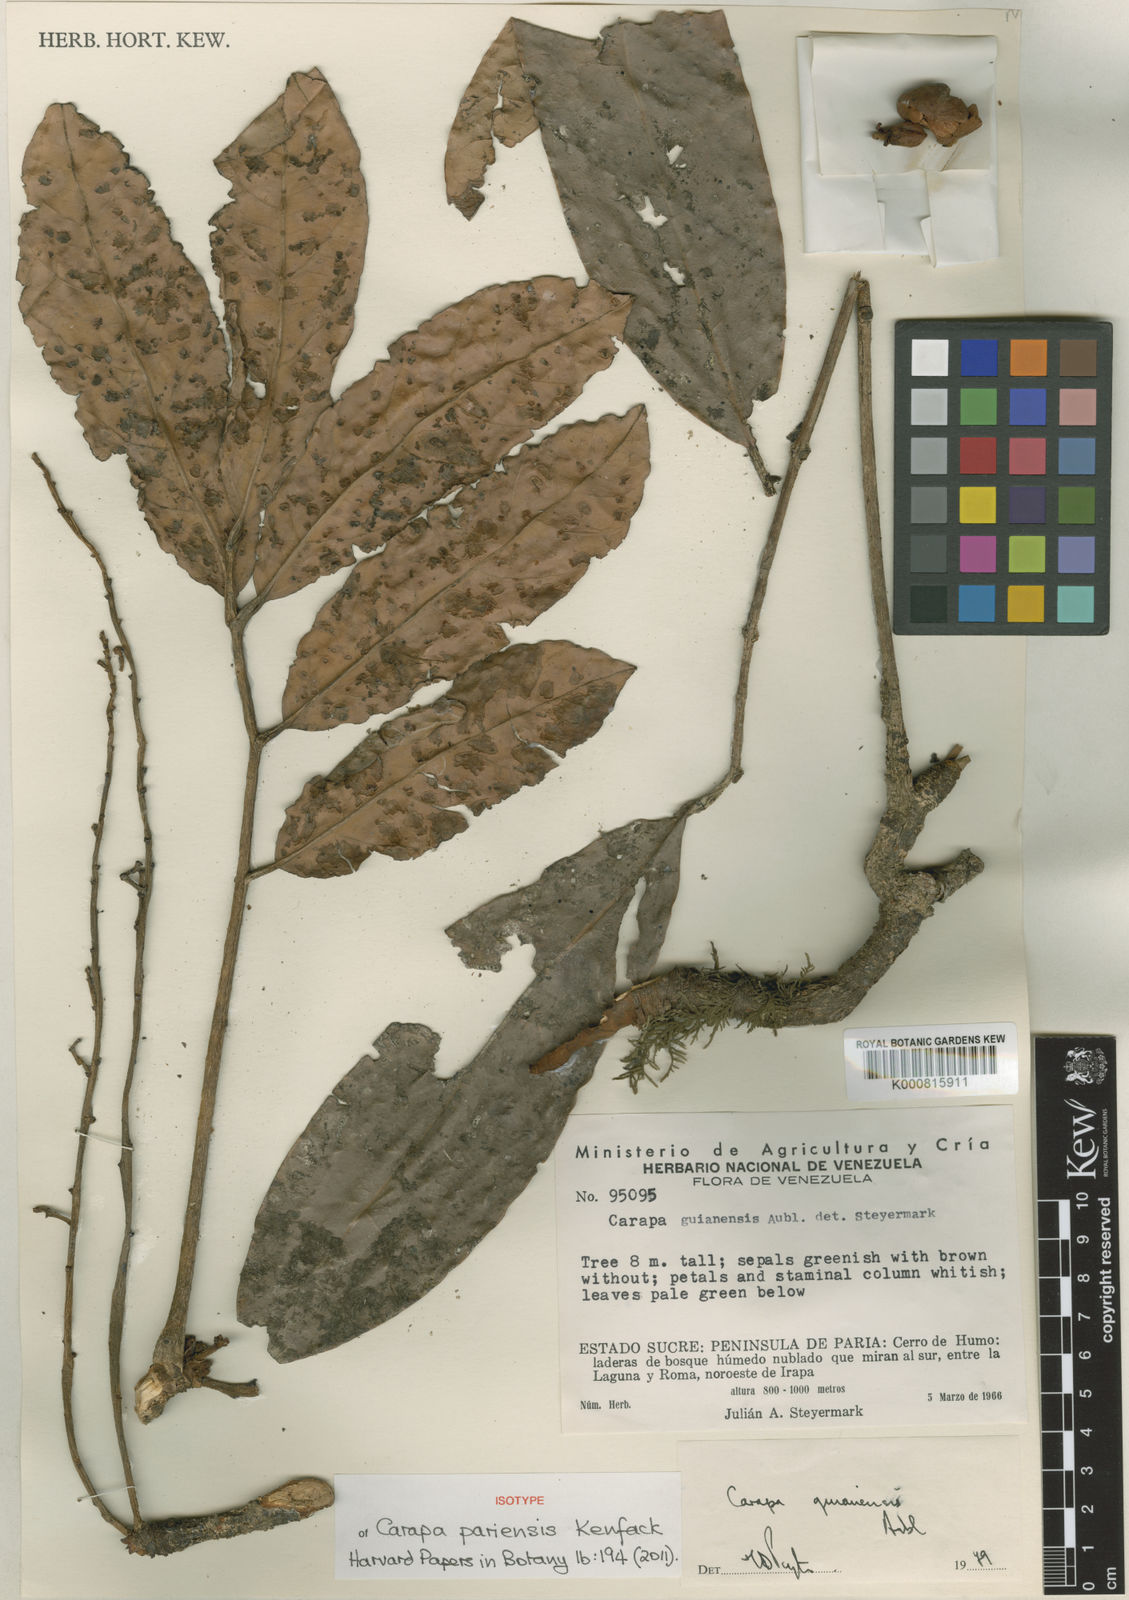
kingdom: Plantae
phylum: Tracheophyta
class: Magnoliopsida
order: Sapindales
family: Meliaceae
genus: Carapa
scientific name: Carapa pariensis
